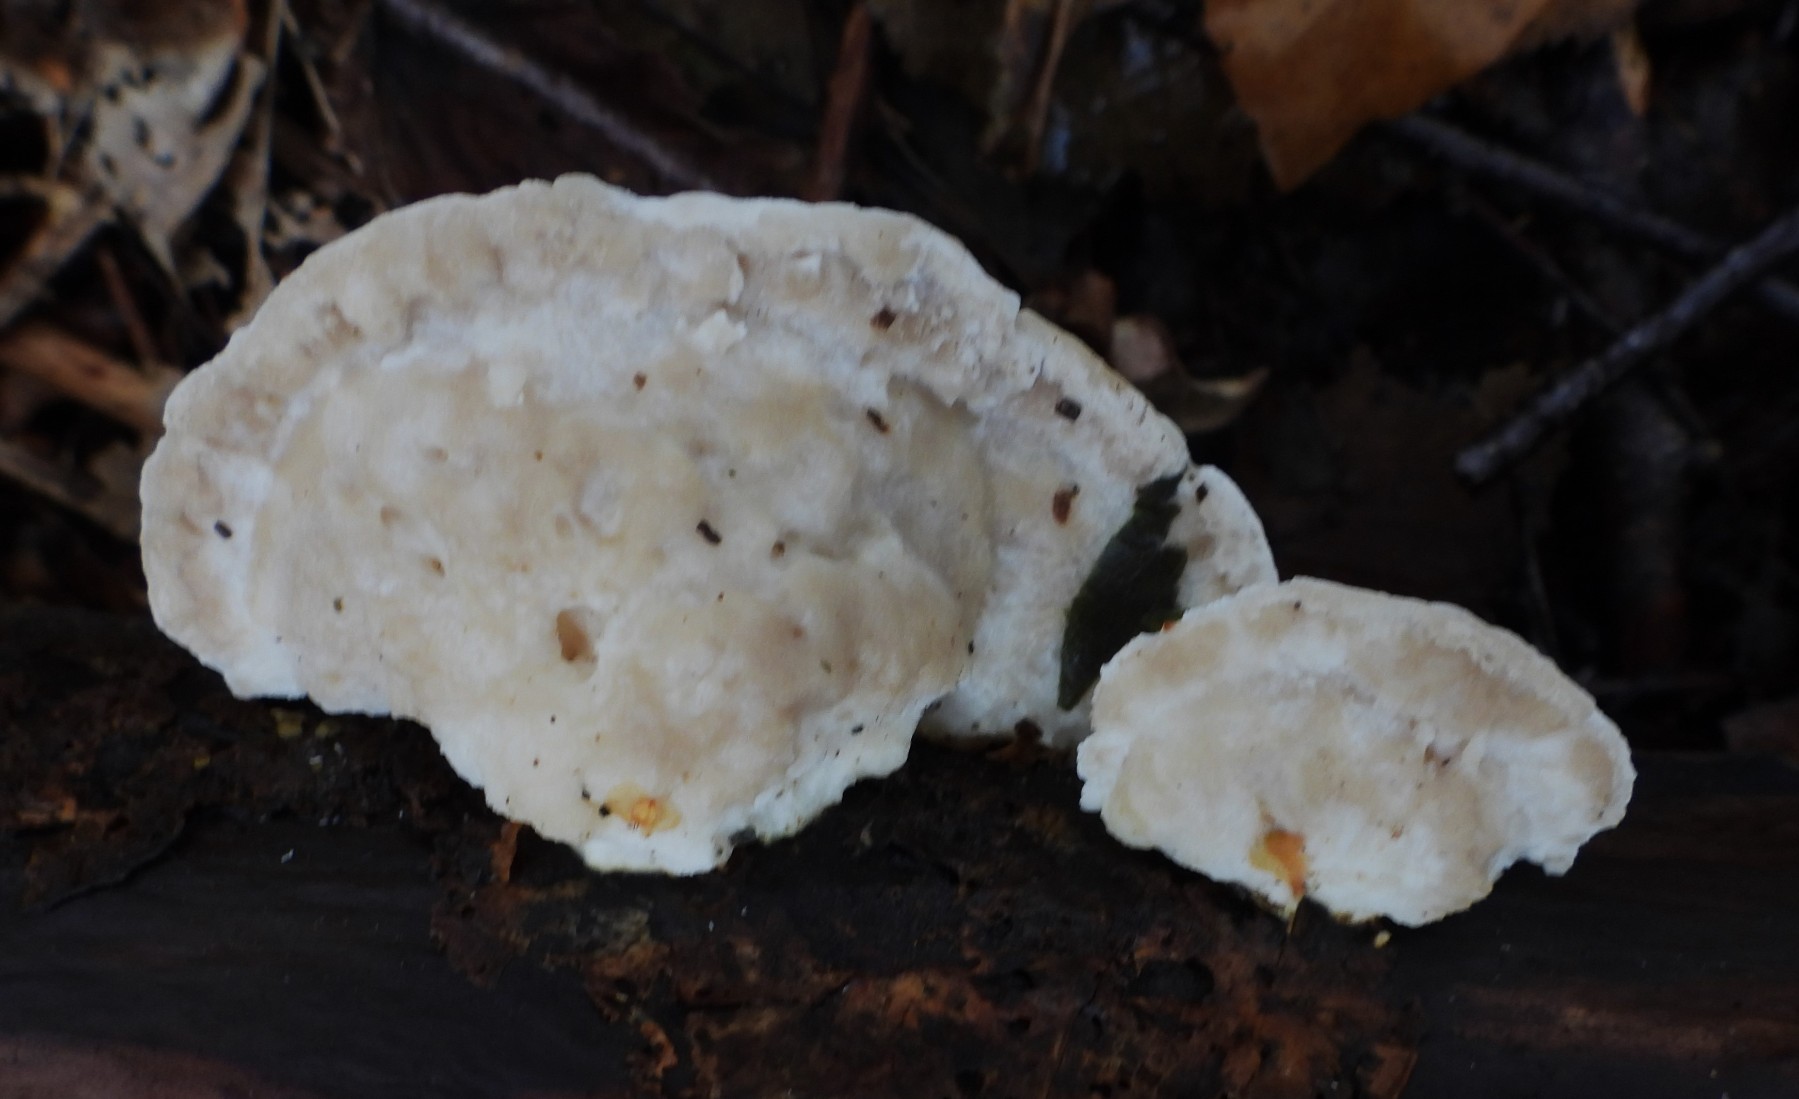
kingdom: Fungi
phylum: Basidiomycota
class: Agaricomycetes
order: Polyporales
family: Incrustoporiaceae
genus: Tyromyces
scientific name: Tyromyces chioneus
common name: stor blødporesvamp
